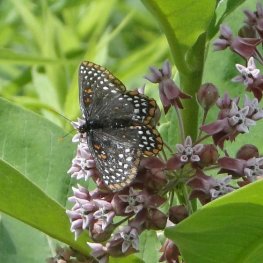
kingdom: Animalia
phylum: Arthropoda
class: Insecta
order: Lepidoptera
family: Nymphalidae
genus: Euphydryas
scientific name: Euphydryas phaeton
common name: Baltimore Checkerspot
